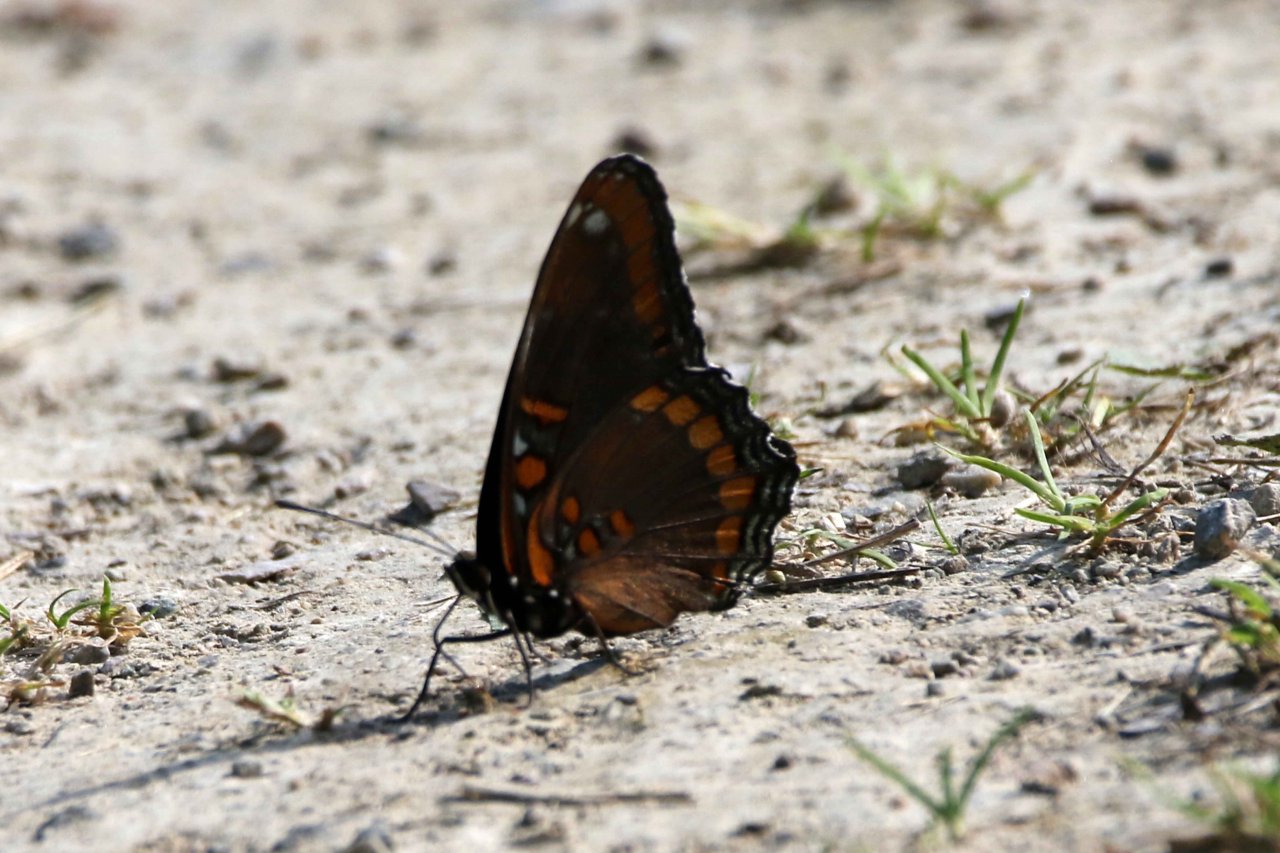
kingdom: Animalia
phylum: Arthropoda
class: Insecta
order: Lepidoptera
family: Nymphalidae
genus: Limenitis
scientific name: Limenitis astyanax
